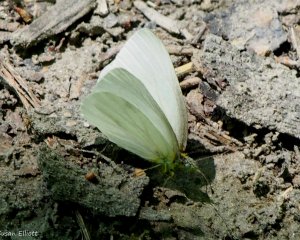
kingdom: Animalia
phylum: Arthropoda
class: Insecta
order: Lepidoptera
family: Pieridae
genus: Pieris
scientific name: Pieris virginiensis
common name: West Virginia White
